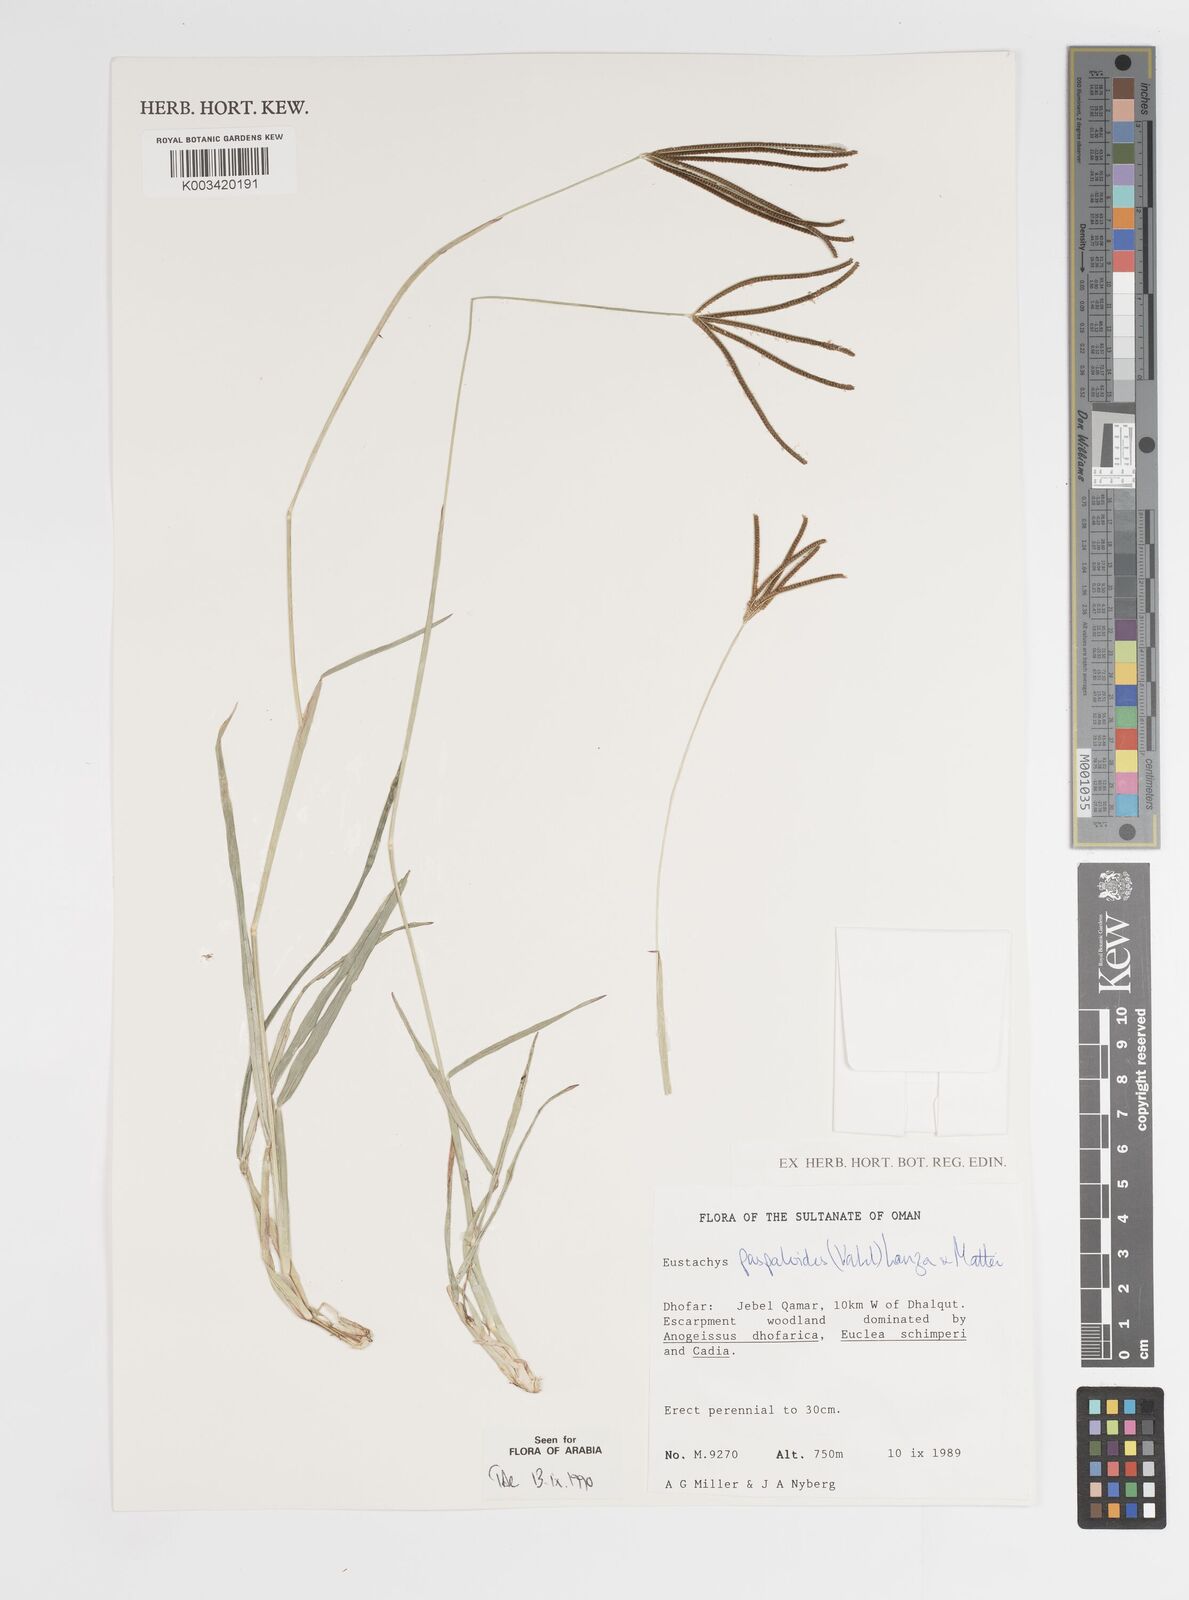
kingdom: Plantae
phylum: Tracheophyta
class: Liliopsida
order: Poales
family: Poaceae
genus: Eustachys
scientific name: Eustachys paspaloides
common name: Caribbean fingergrass
